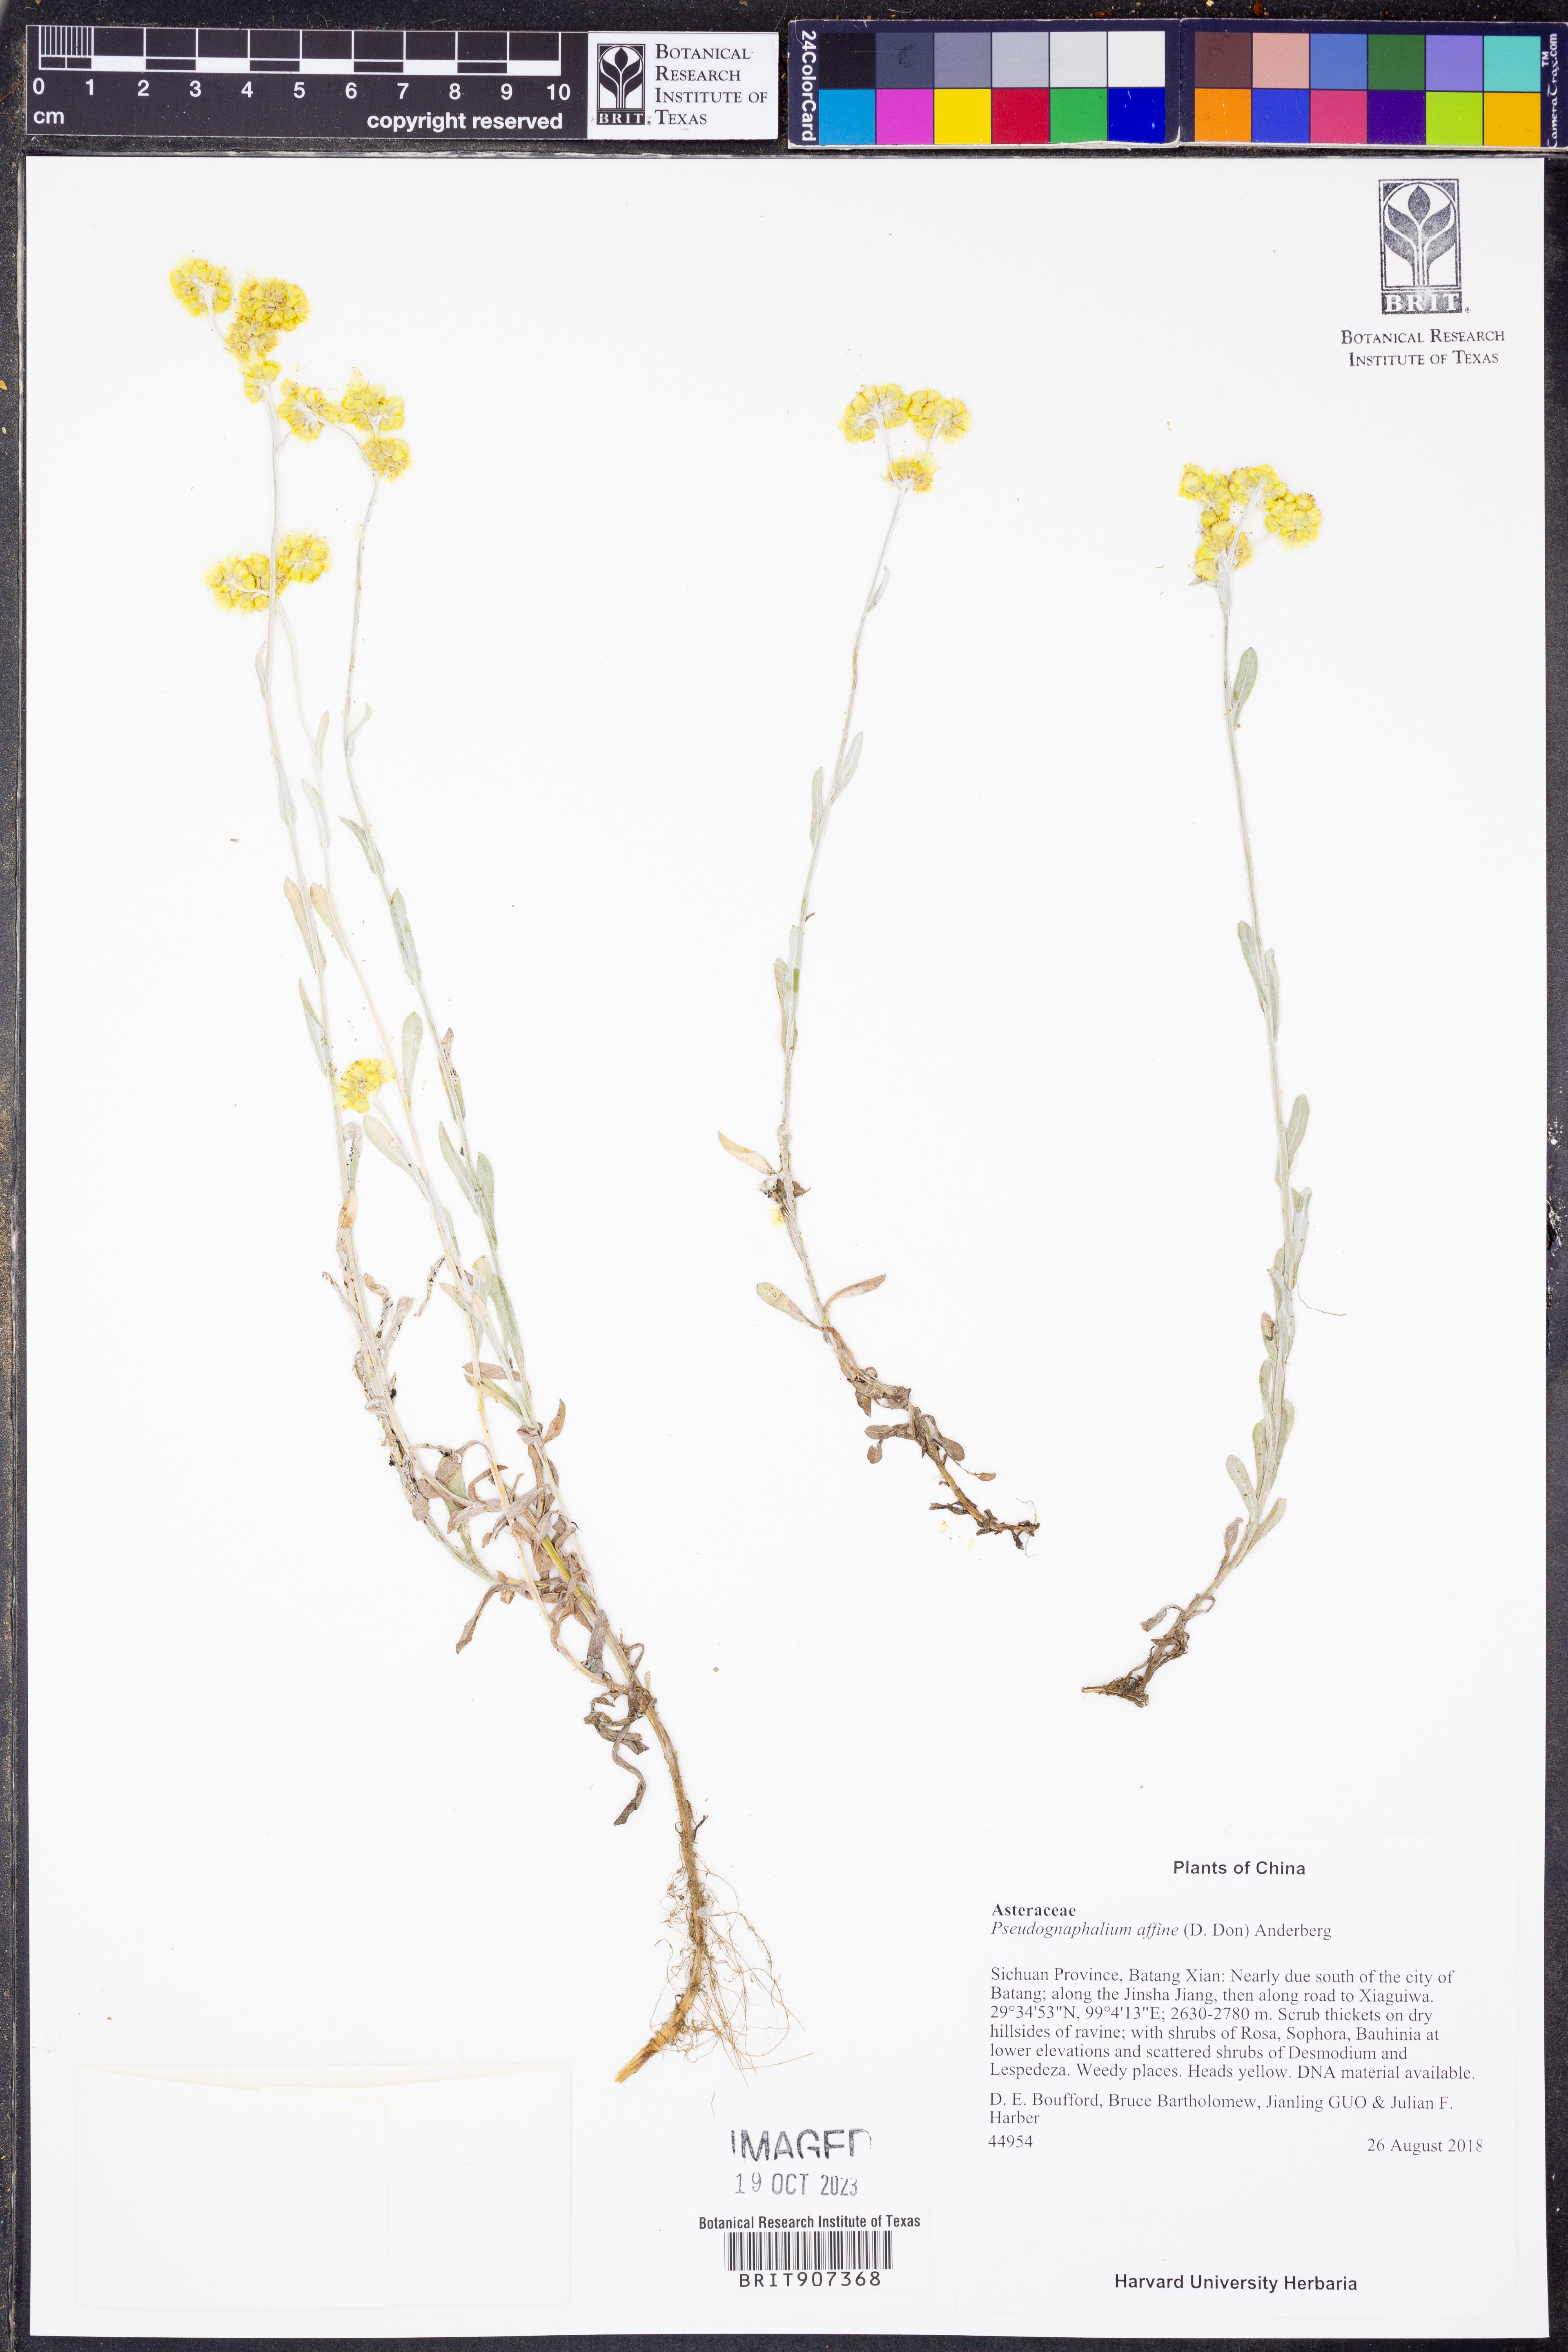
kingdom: Plantae
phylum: Tracheophyta
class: Magnoliopsida
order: Asterales
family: Asteraceae
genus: Pseudognaphalium
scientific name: Pseudognaphalium affine
